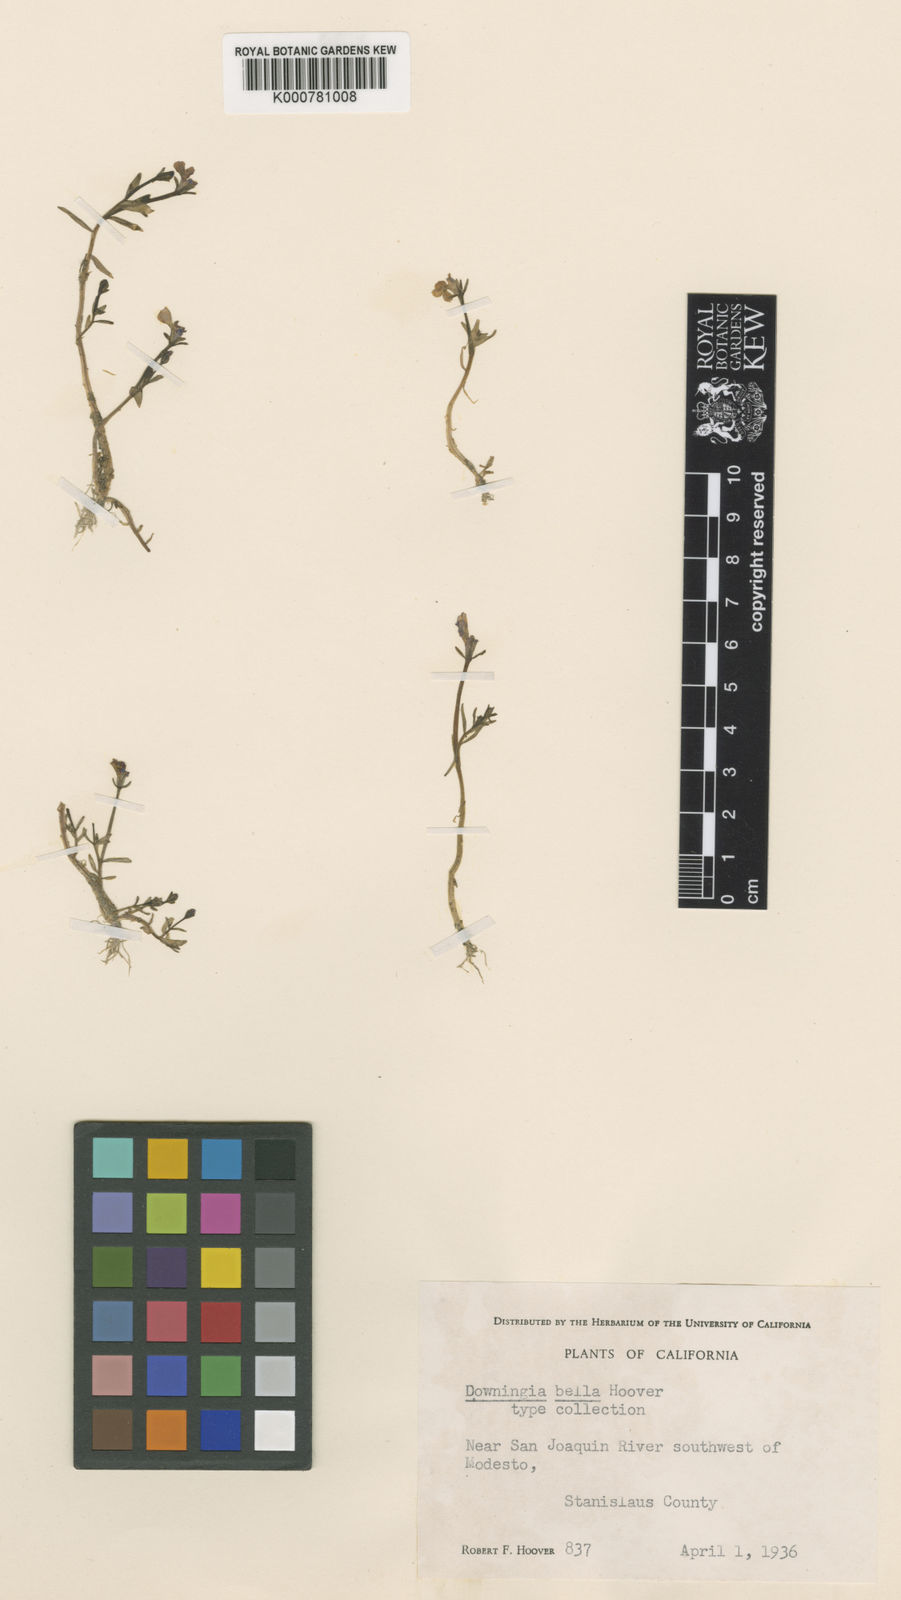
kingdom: Plantae
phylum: Tracheophyta
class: Magnoliopsida
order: Asterales
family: Campanulaceae
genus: Downingia
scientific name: Downingia bella
